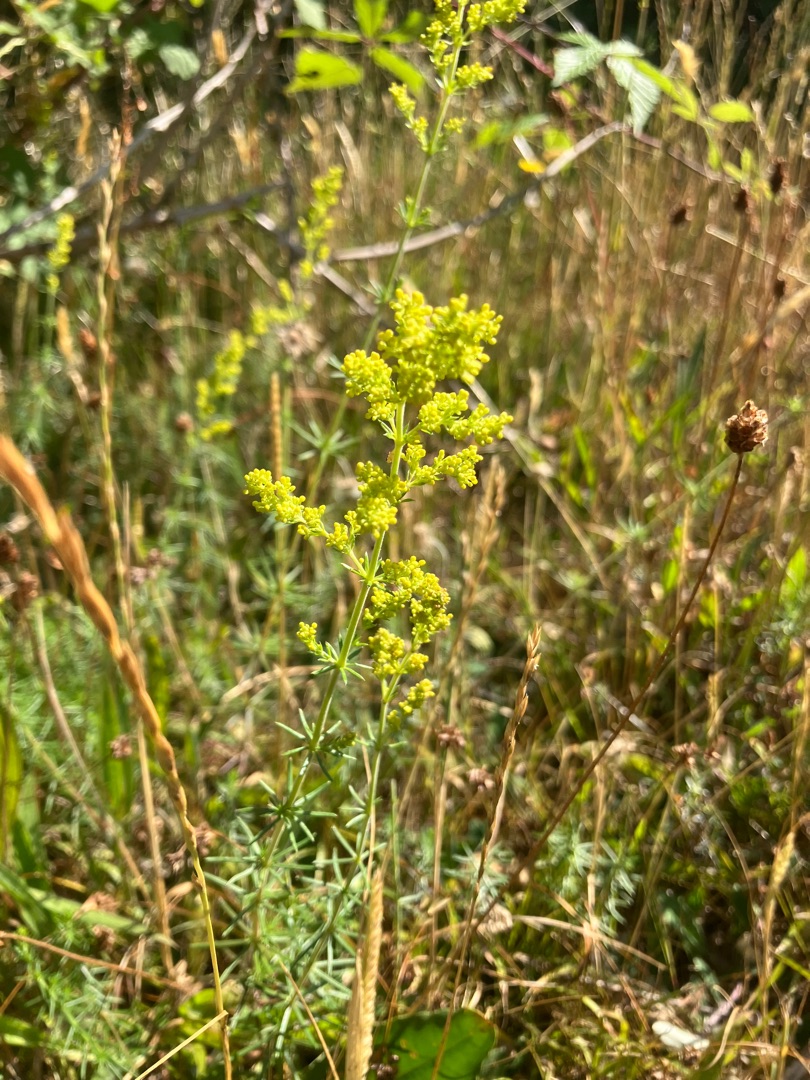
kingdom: Plantae
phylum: Tracheophyta
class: Magnoliopsida
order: Gentianales
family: Rubiaceae
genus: Galium
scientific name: Galium verum
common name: Gul snerre
